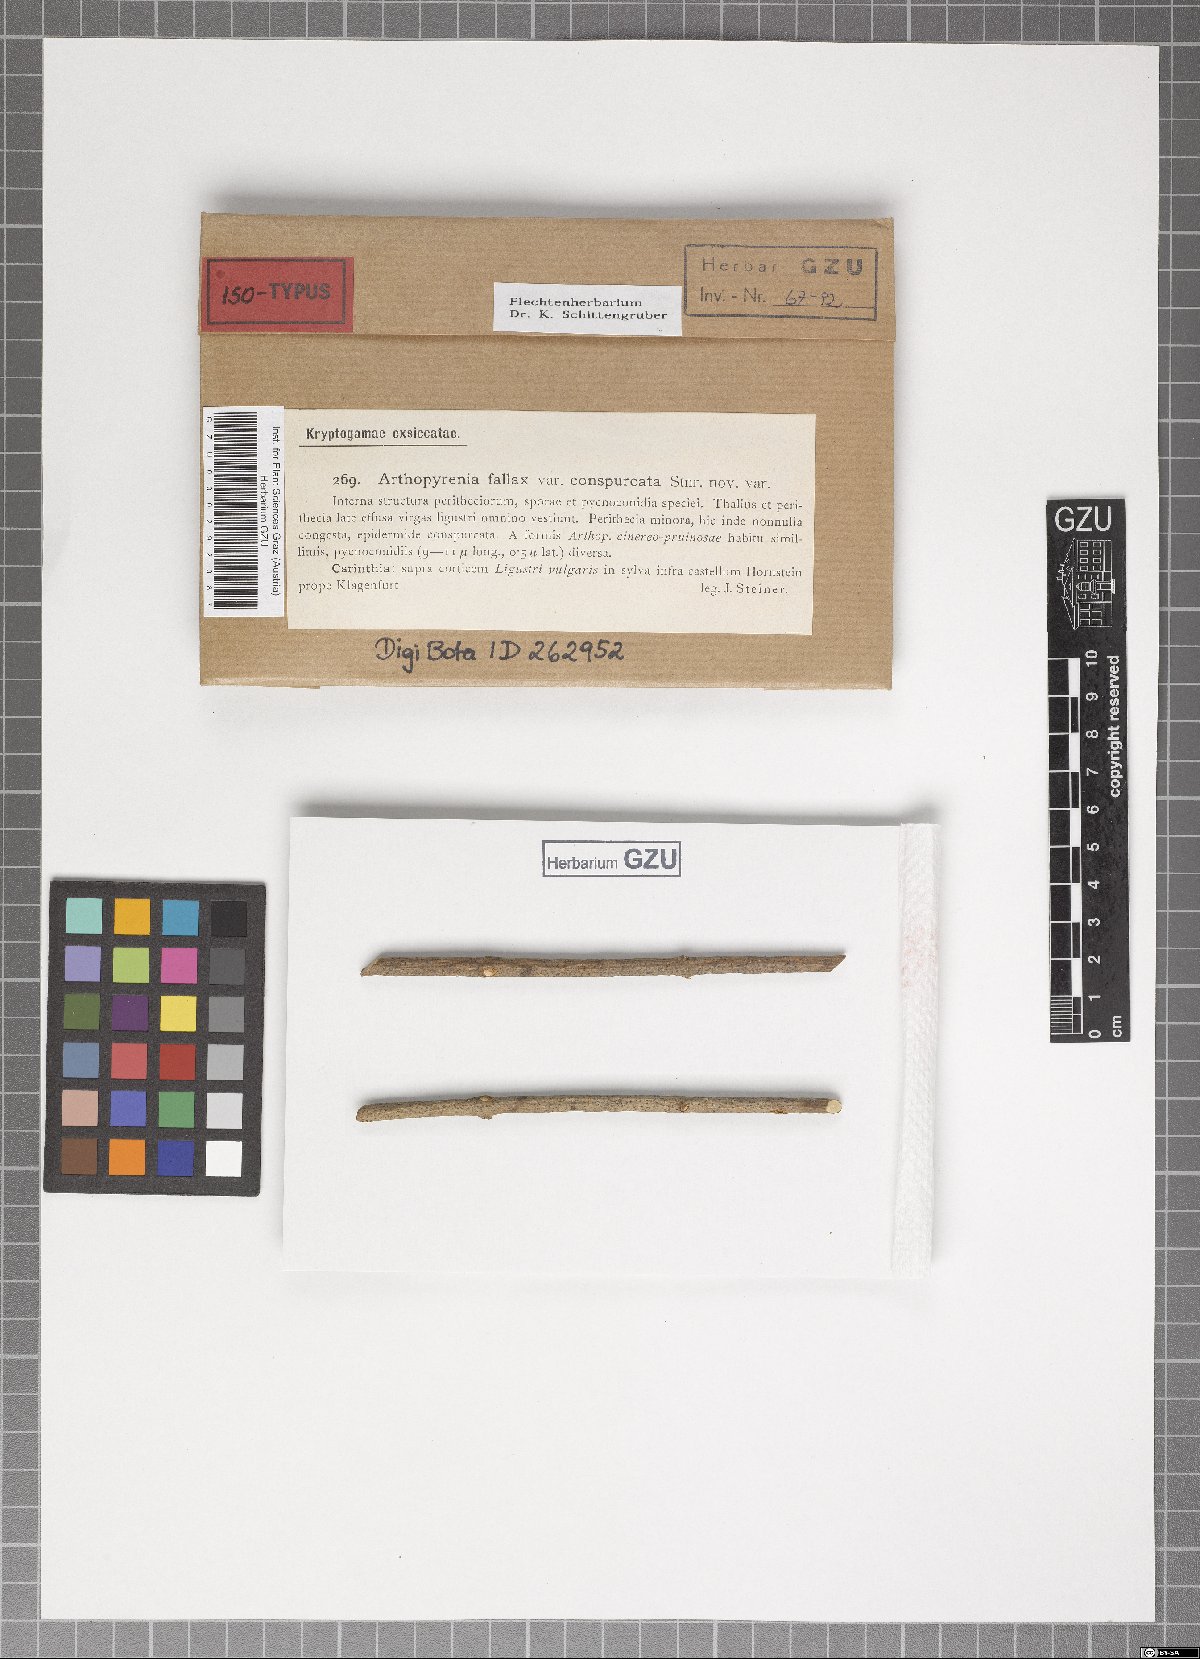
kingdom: Fungi
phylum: Ascomycota
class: Lecanoromycetes
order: Ostropales
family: Porinaceae
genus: Pseudosagedia
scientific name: Pseudosagedia fallax
